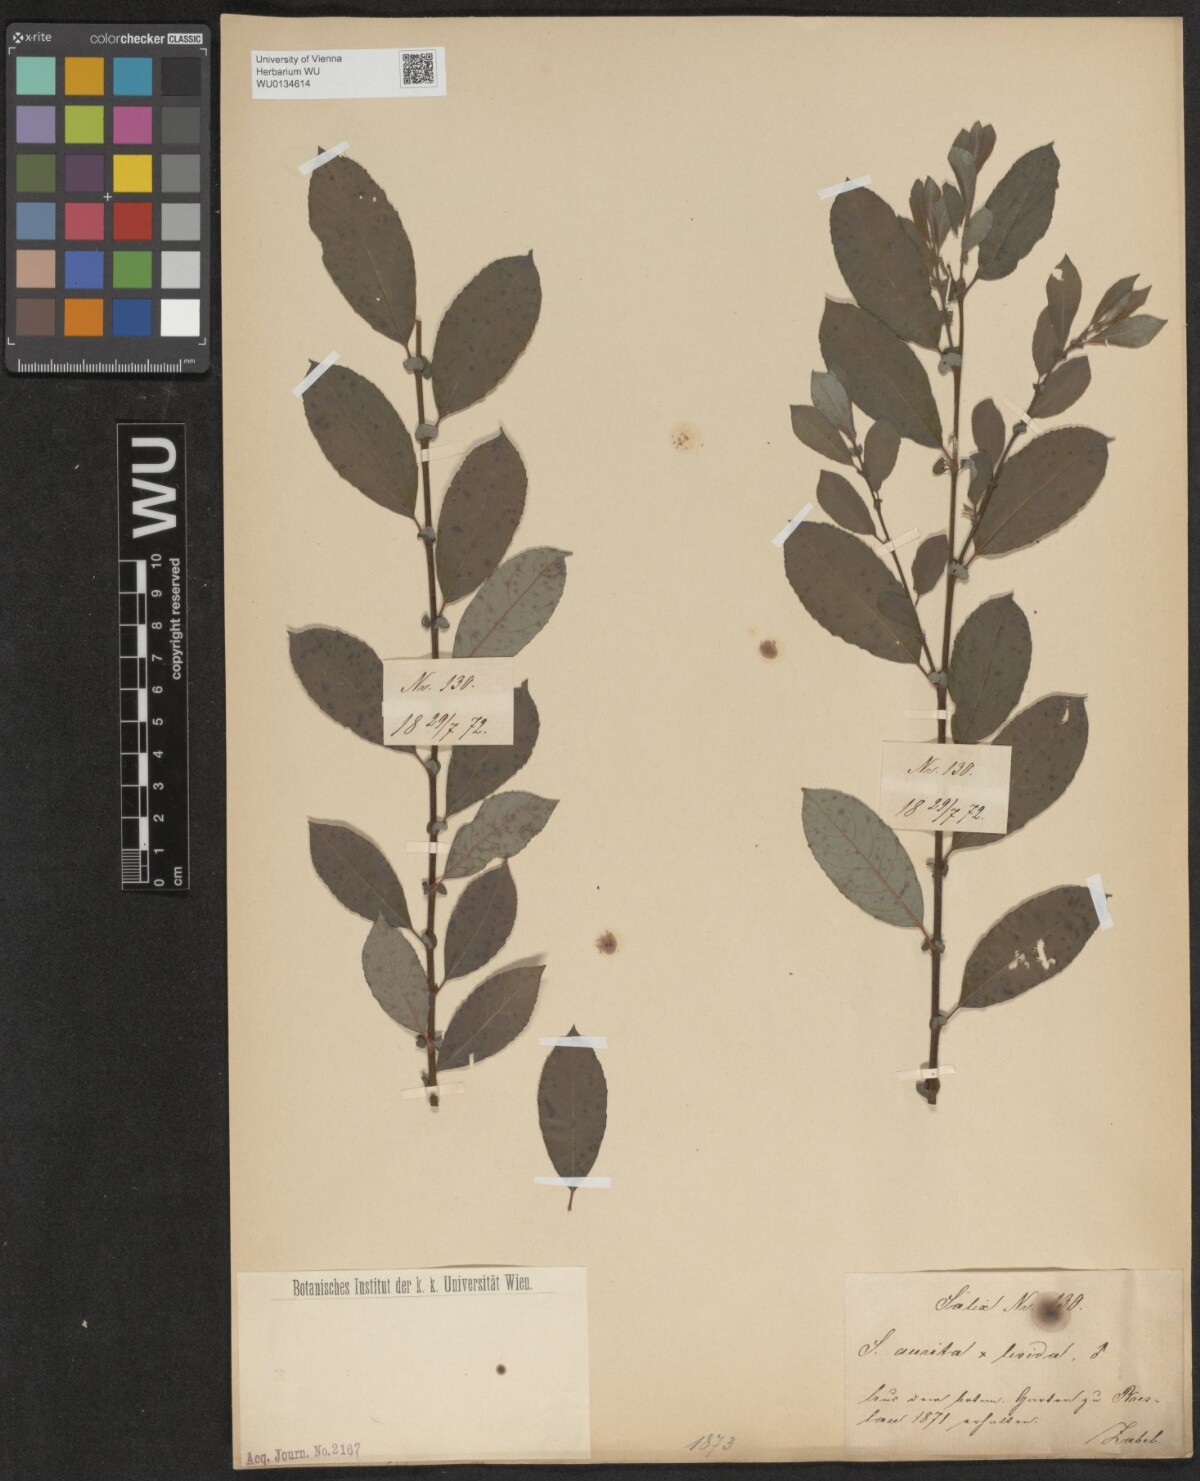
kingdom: Plantae
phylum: Tracheophyta
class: Magnoliopsida
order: Malpighiales
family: Salicaceae
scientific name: Salicaceae
